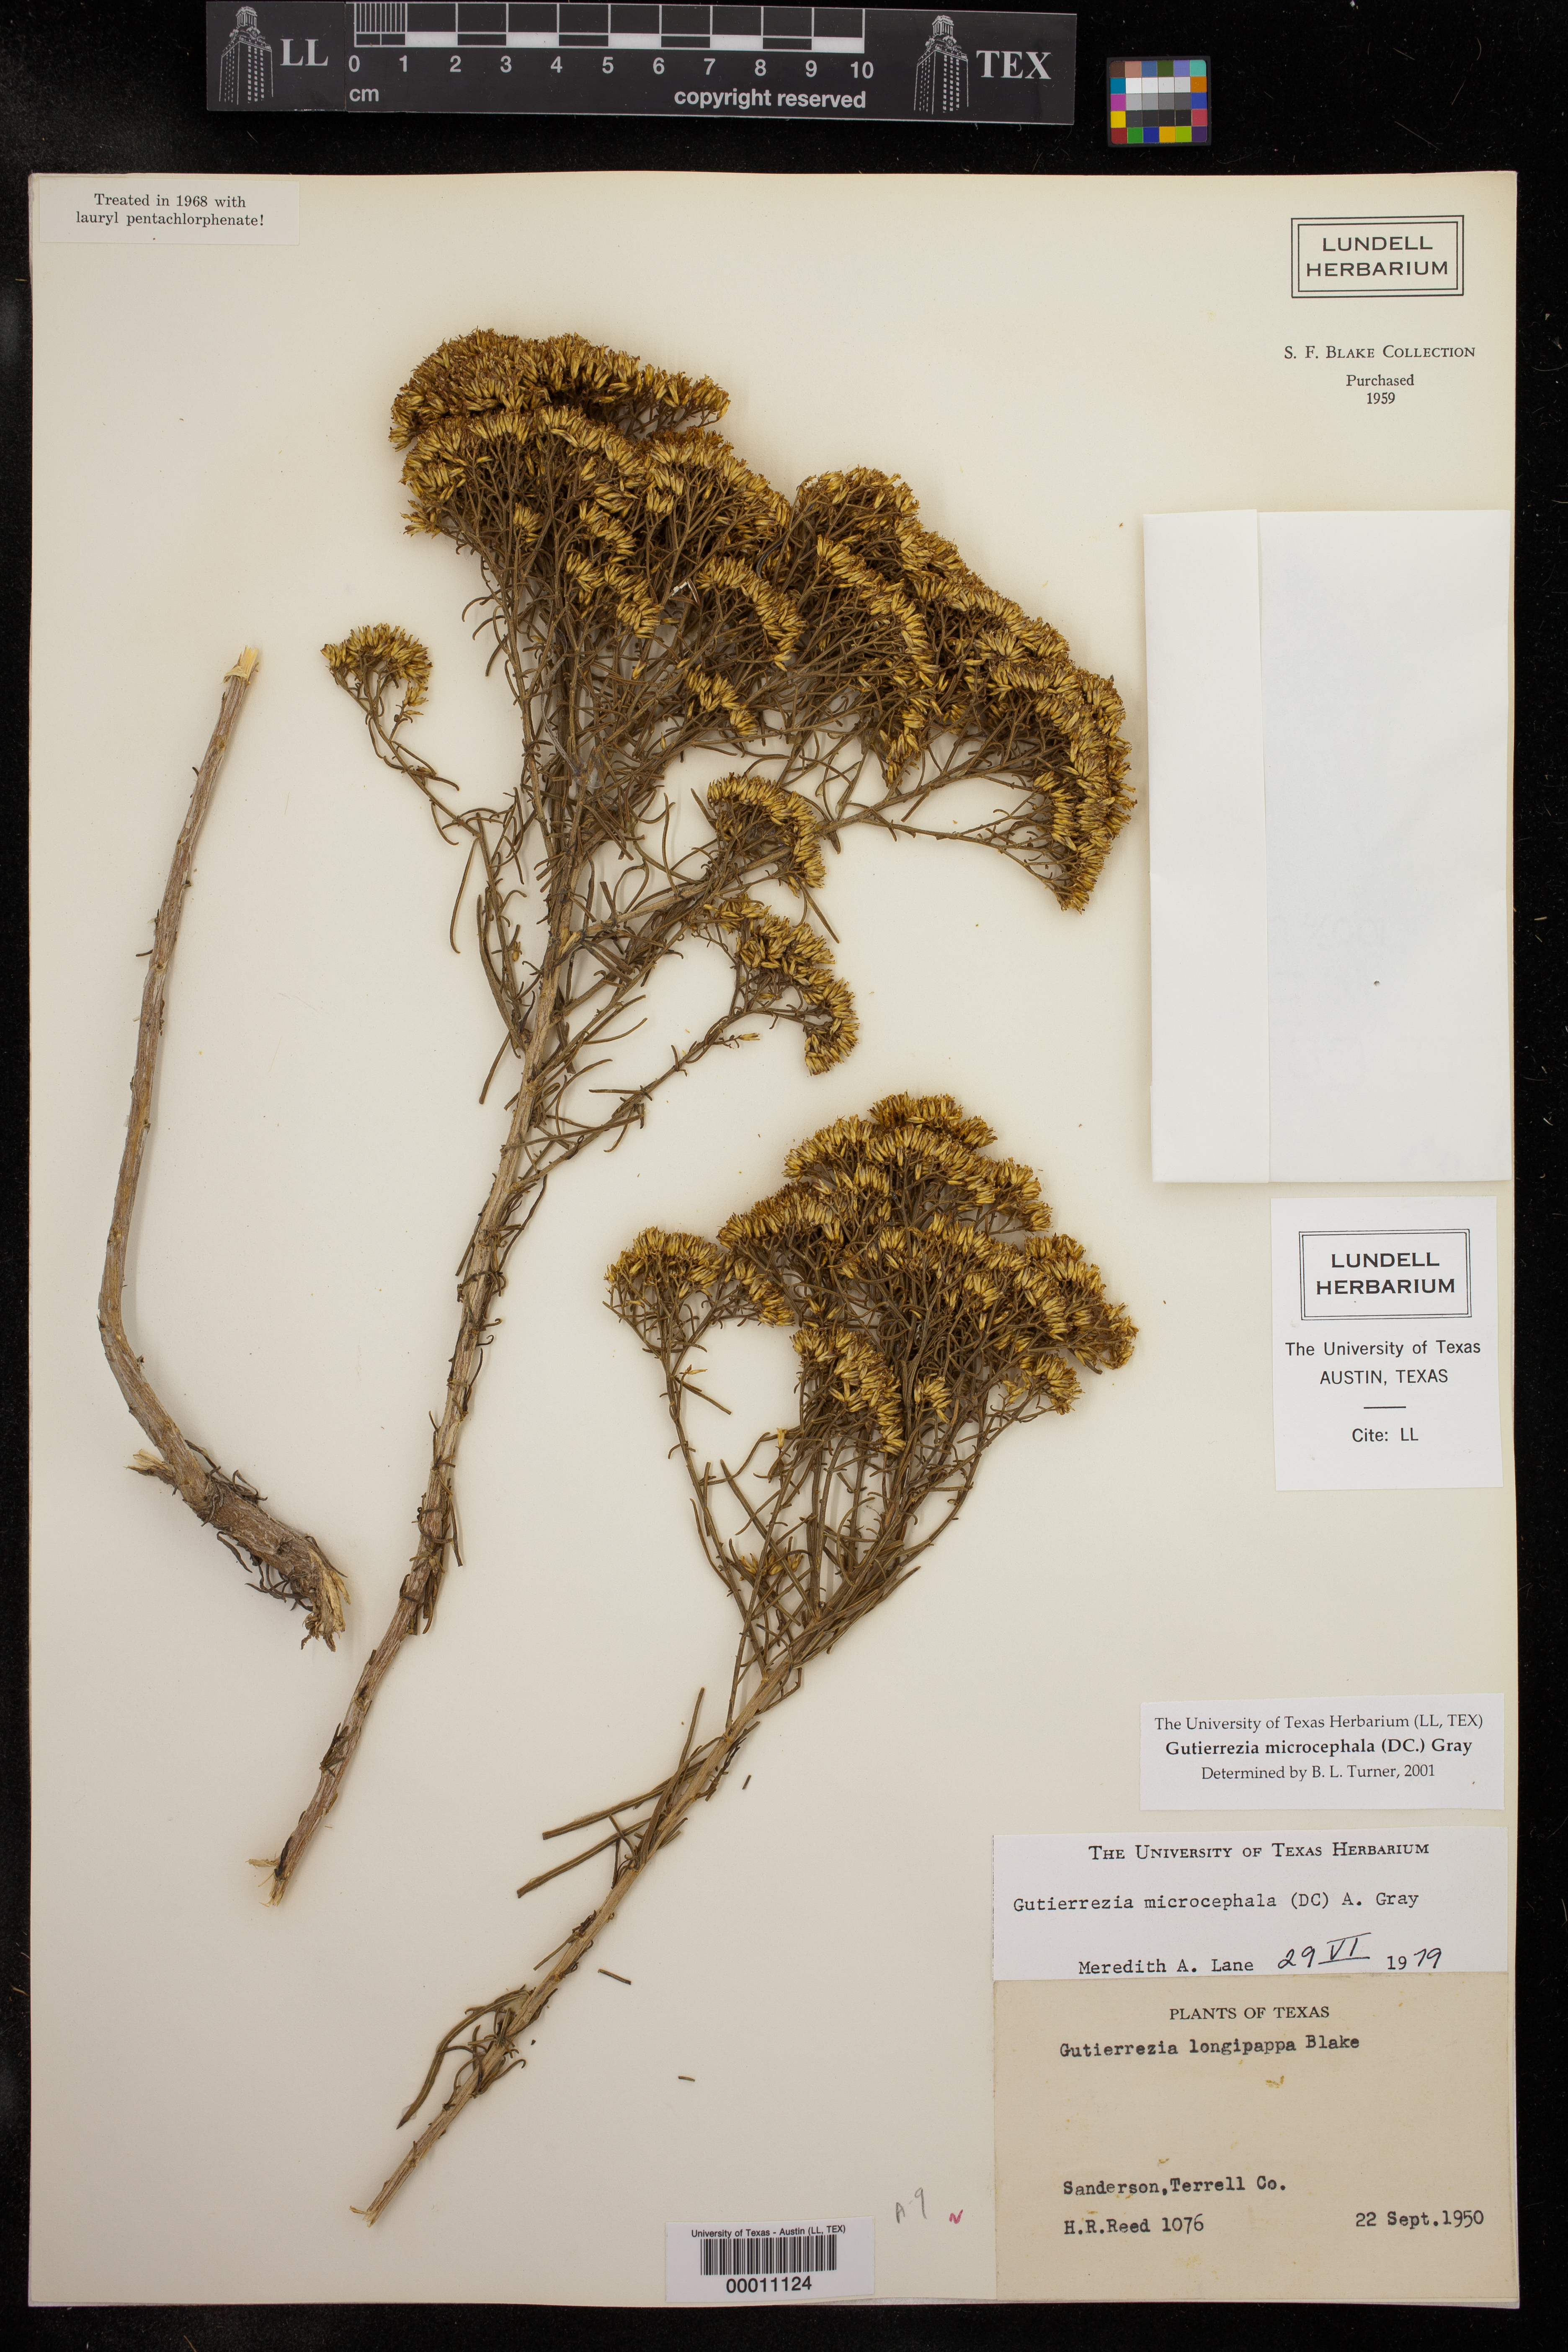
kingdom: Plantae
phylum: Tracheophyta
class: Magnoliopsida
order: Asterales
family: Asteraceae
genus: Gutierrezia
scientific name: Gutierrezia microcephala
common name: Thread snakeweed
